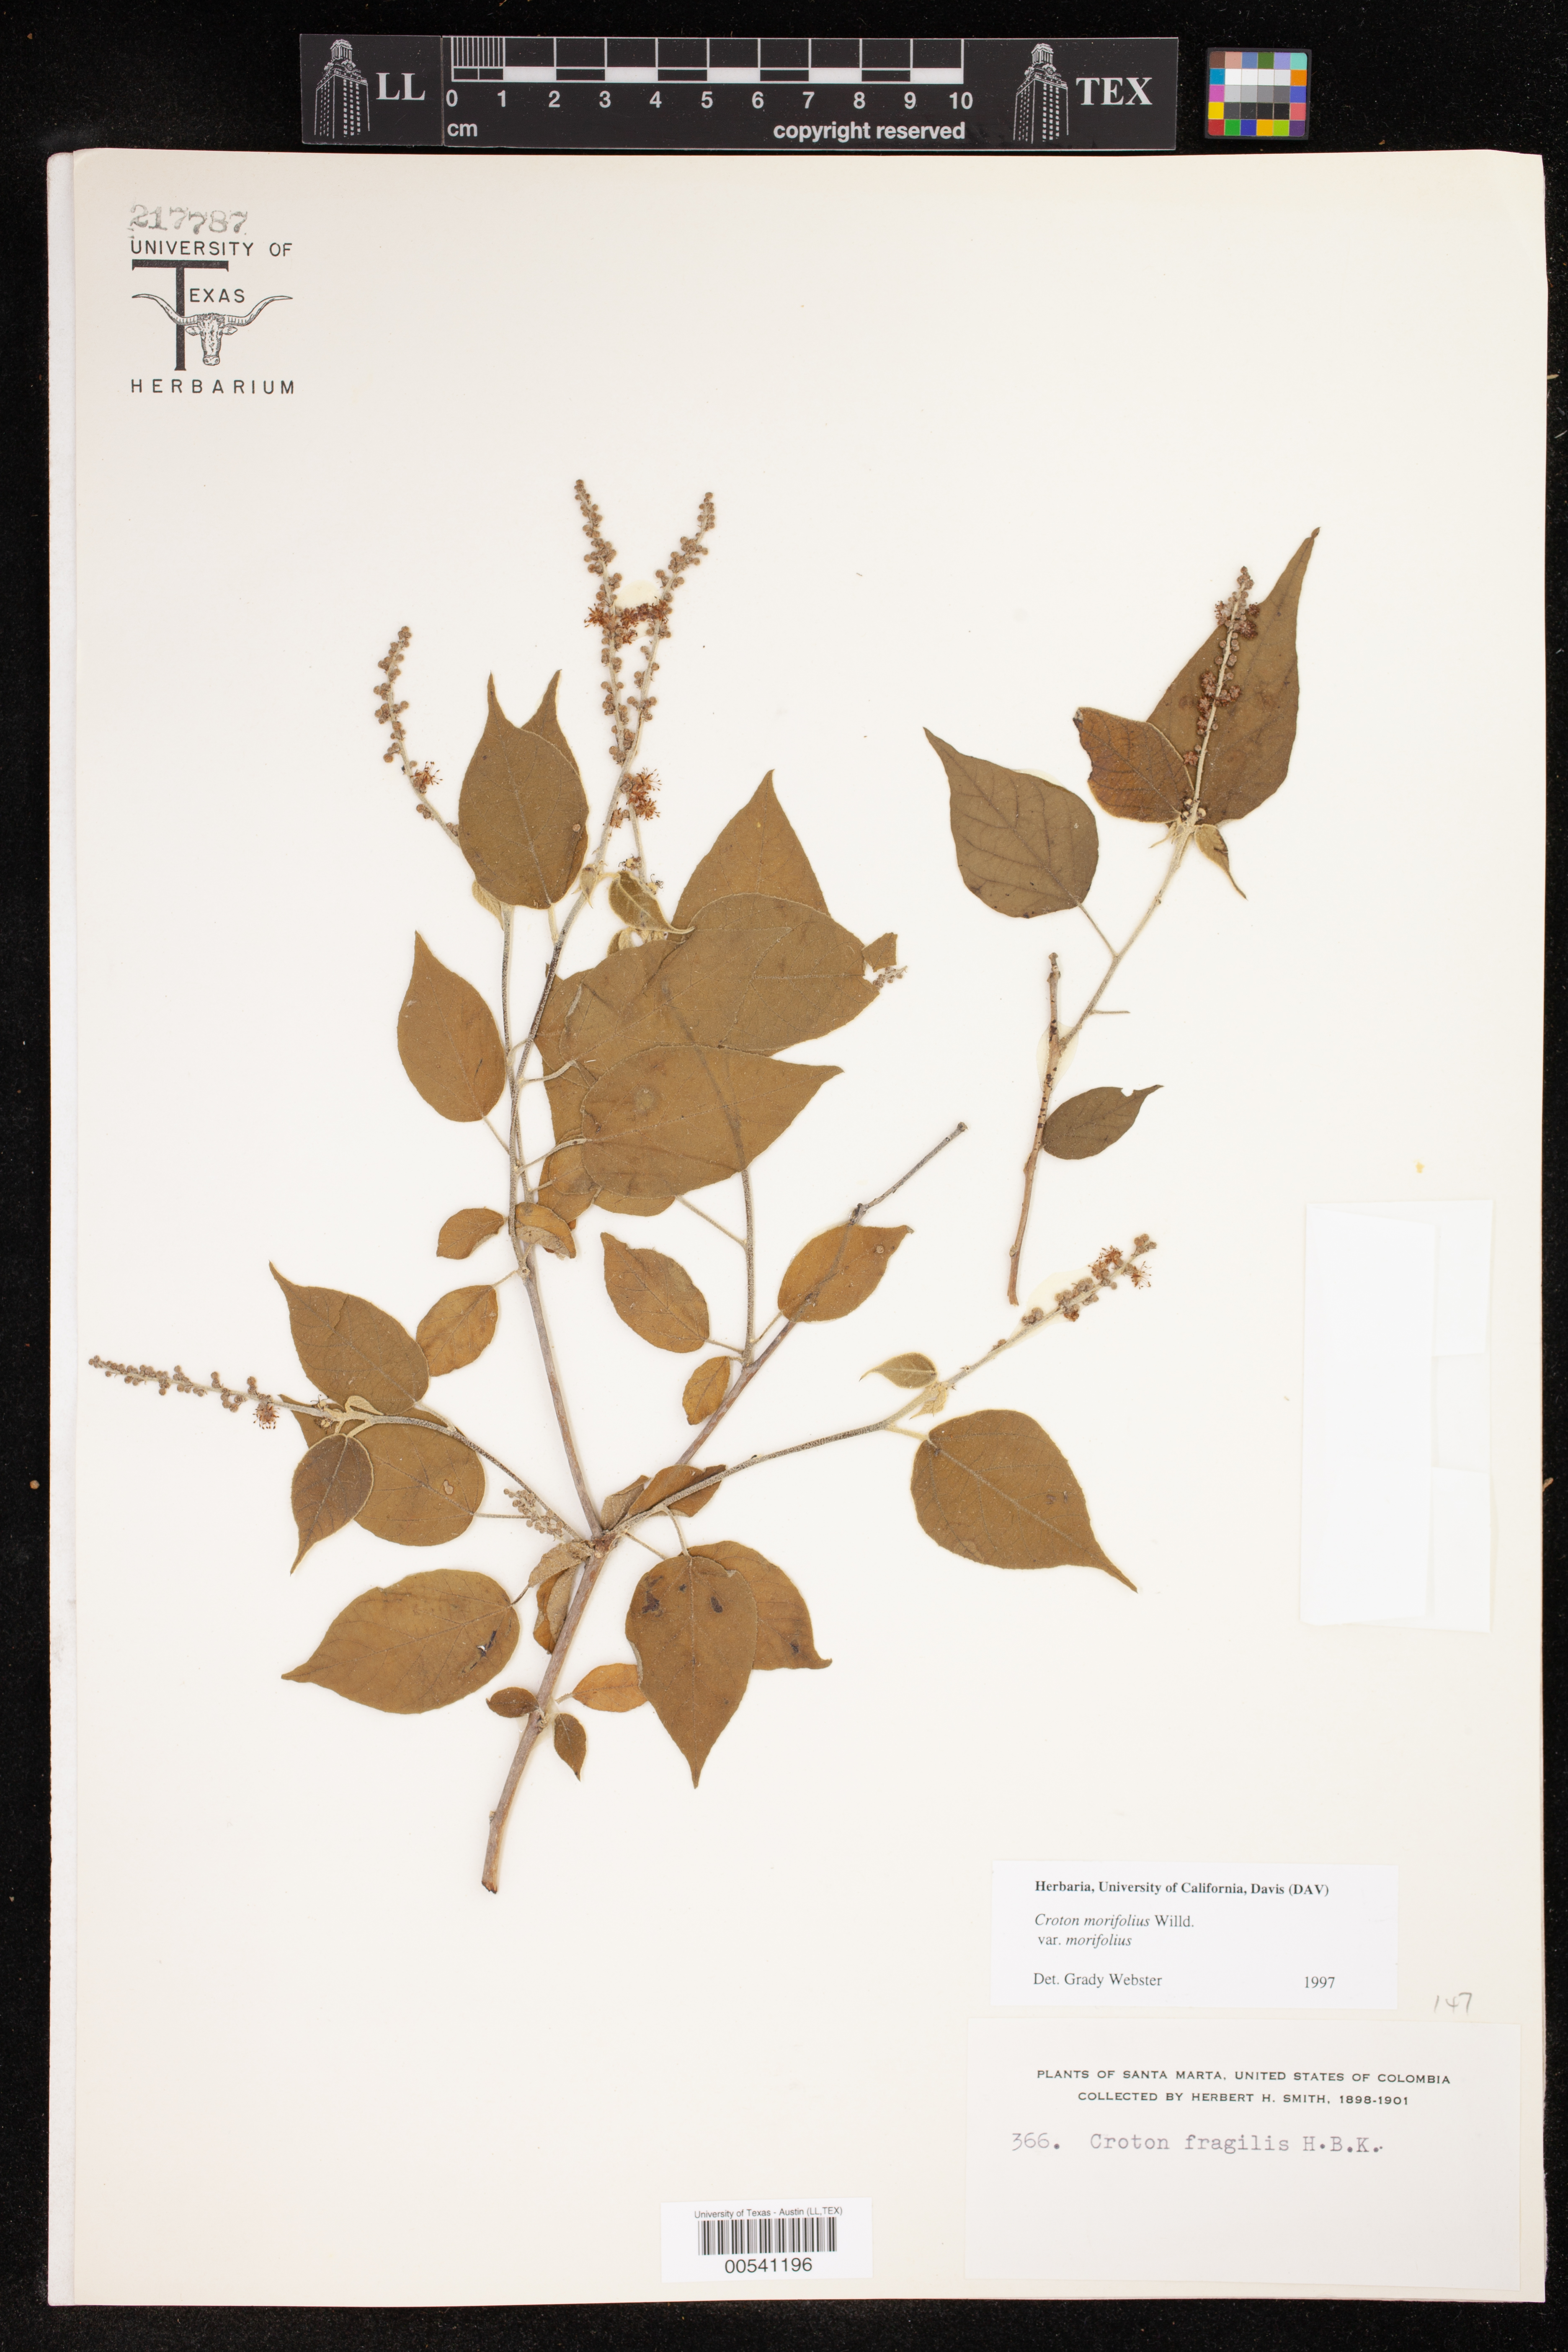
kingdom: Plantae
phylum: Tracheophyta
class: Magnoliopsida
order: Malpighiales
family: Euphorbiaceae
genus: Croton
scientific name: Croton morifolius
